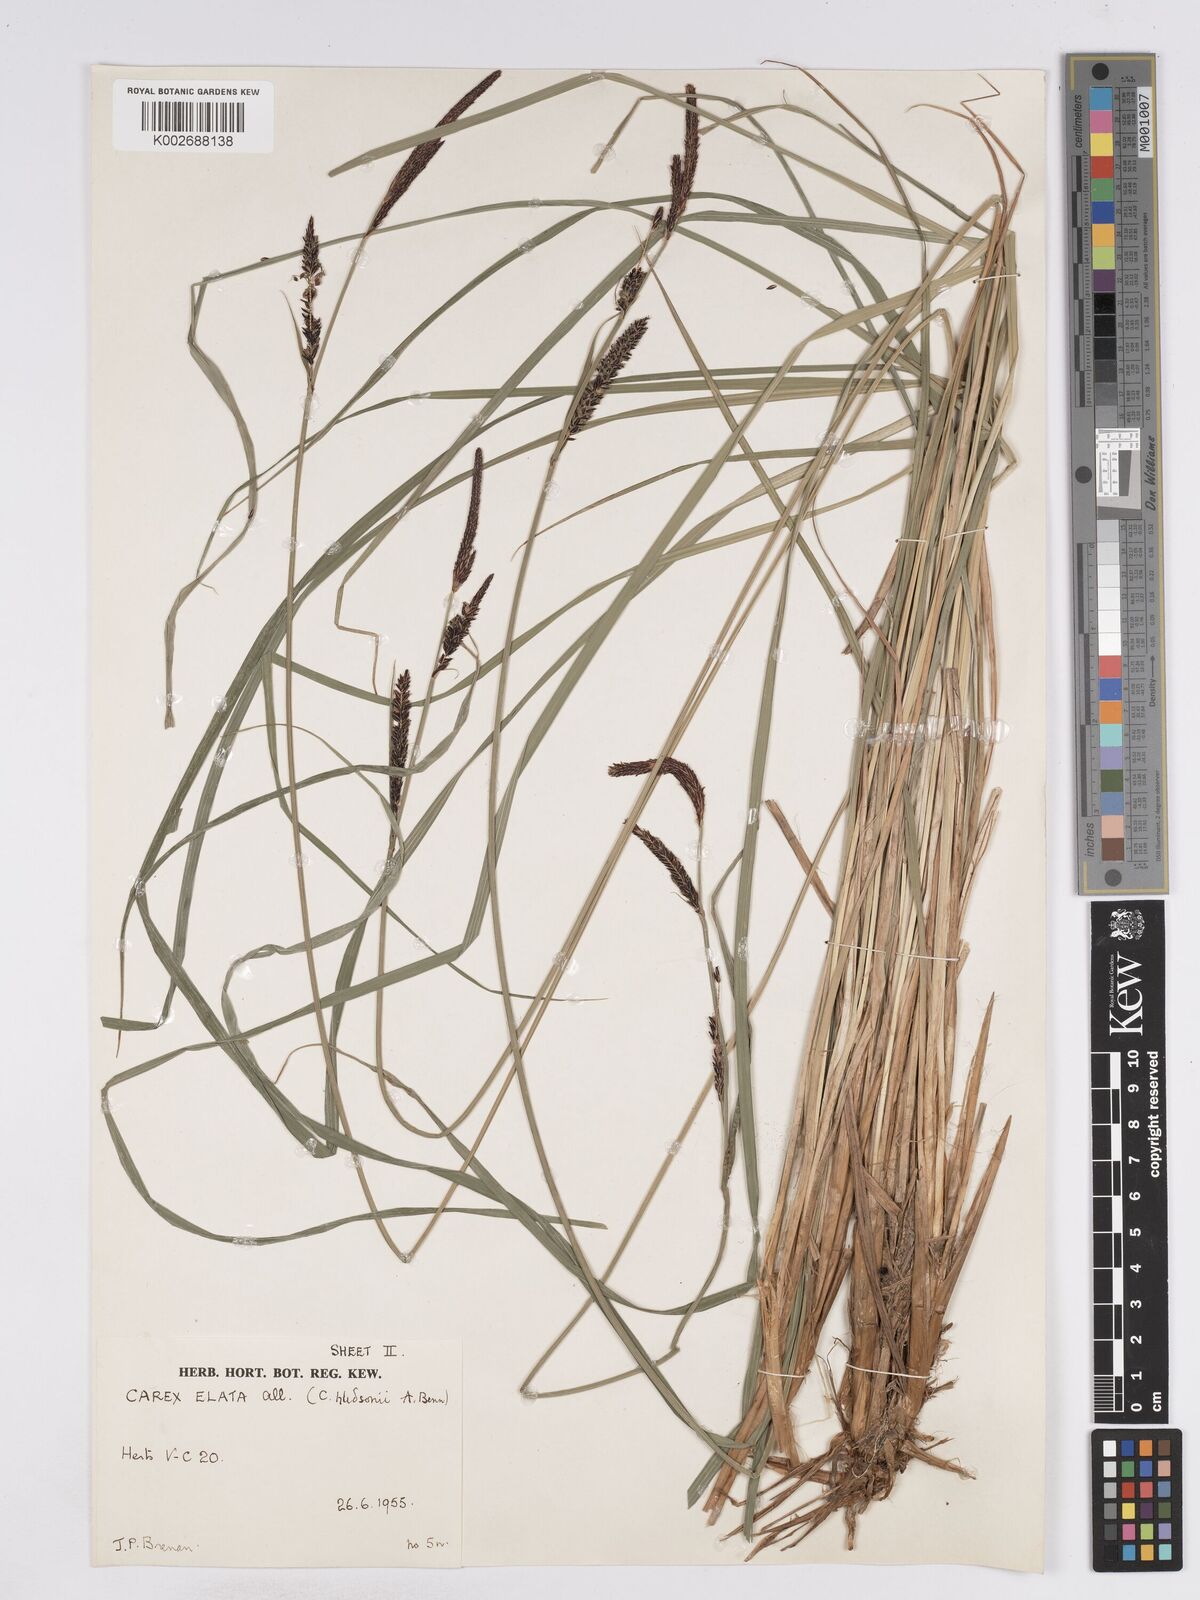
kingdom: Plantae
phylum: Tracheophyta
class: Liliopsida
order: Poales
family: Cyperaceae
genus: Carex
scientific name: Carex elata
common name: Tufted sedge
